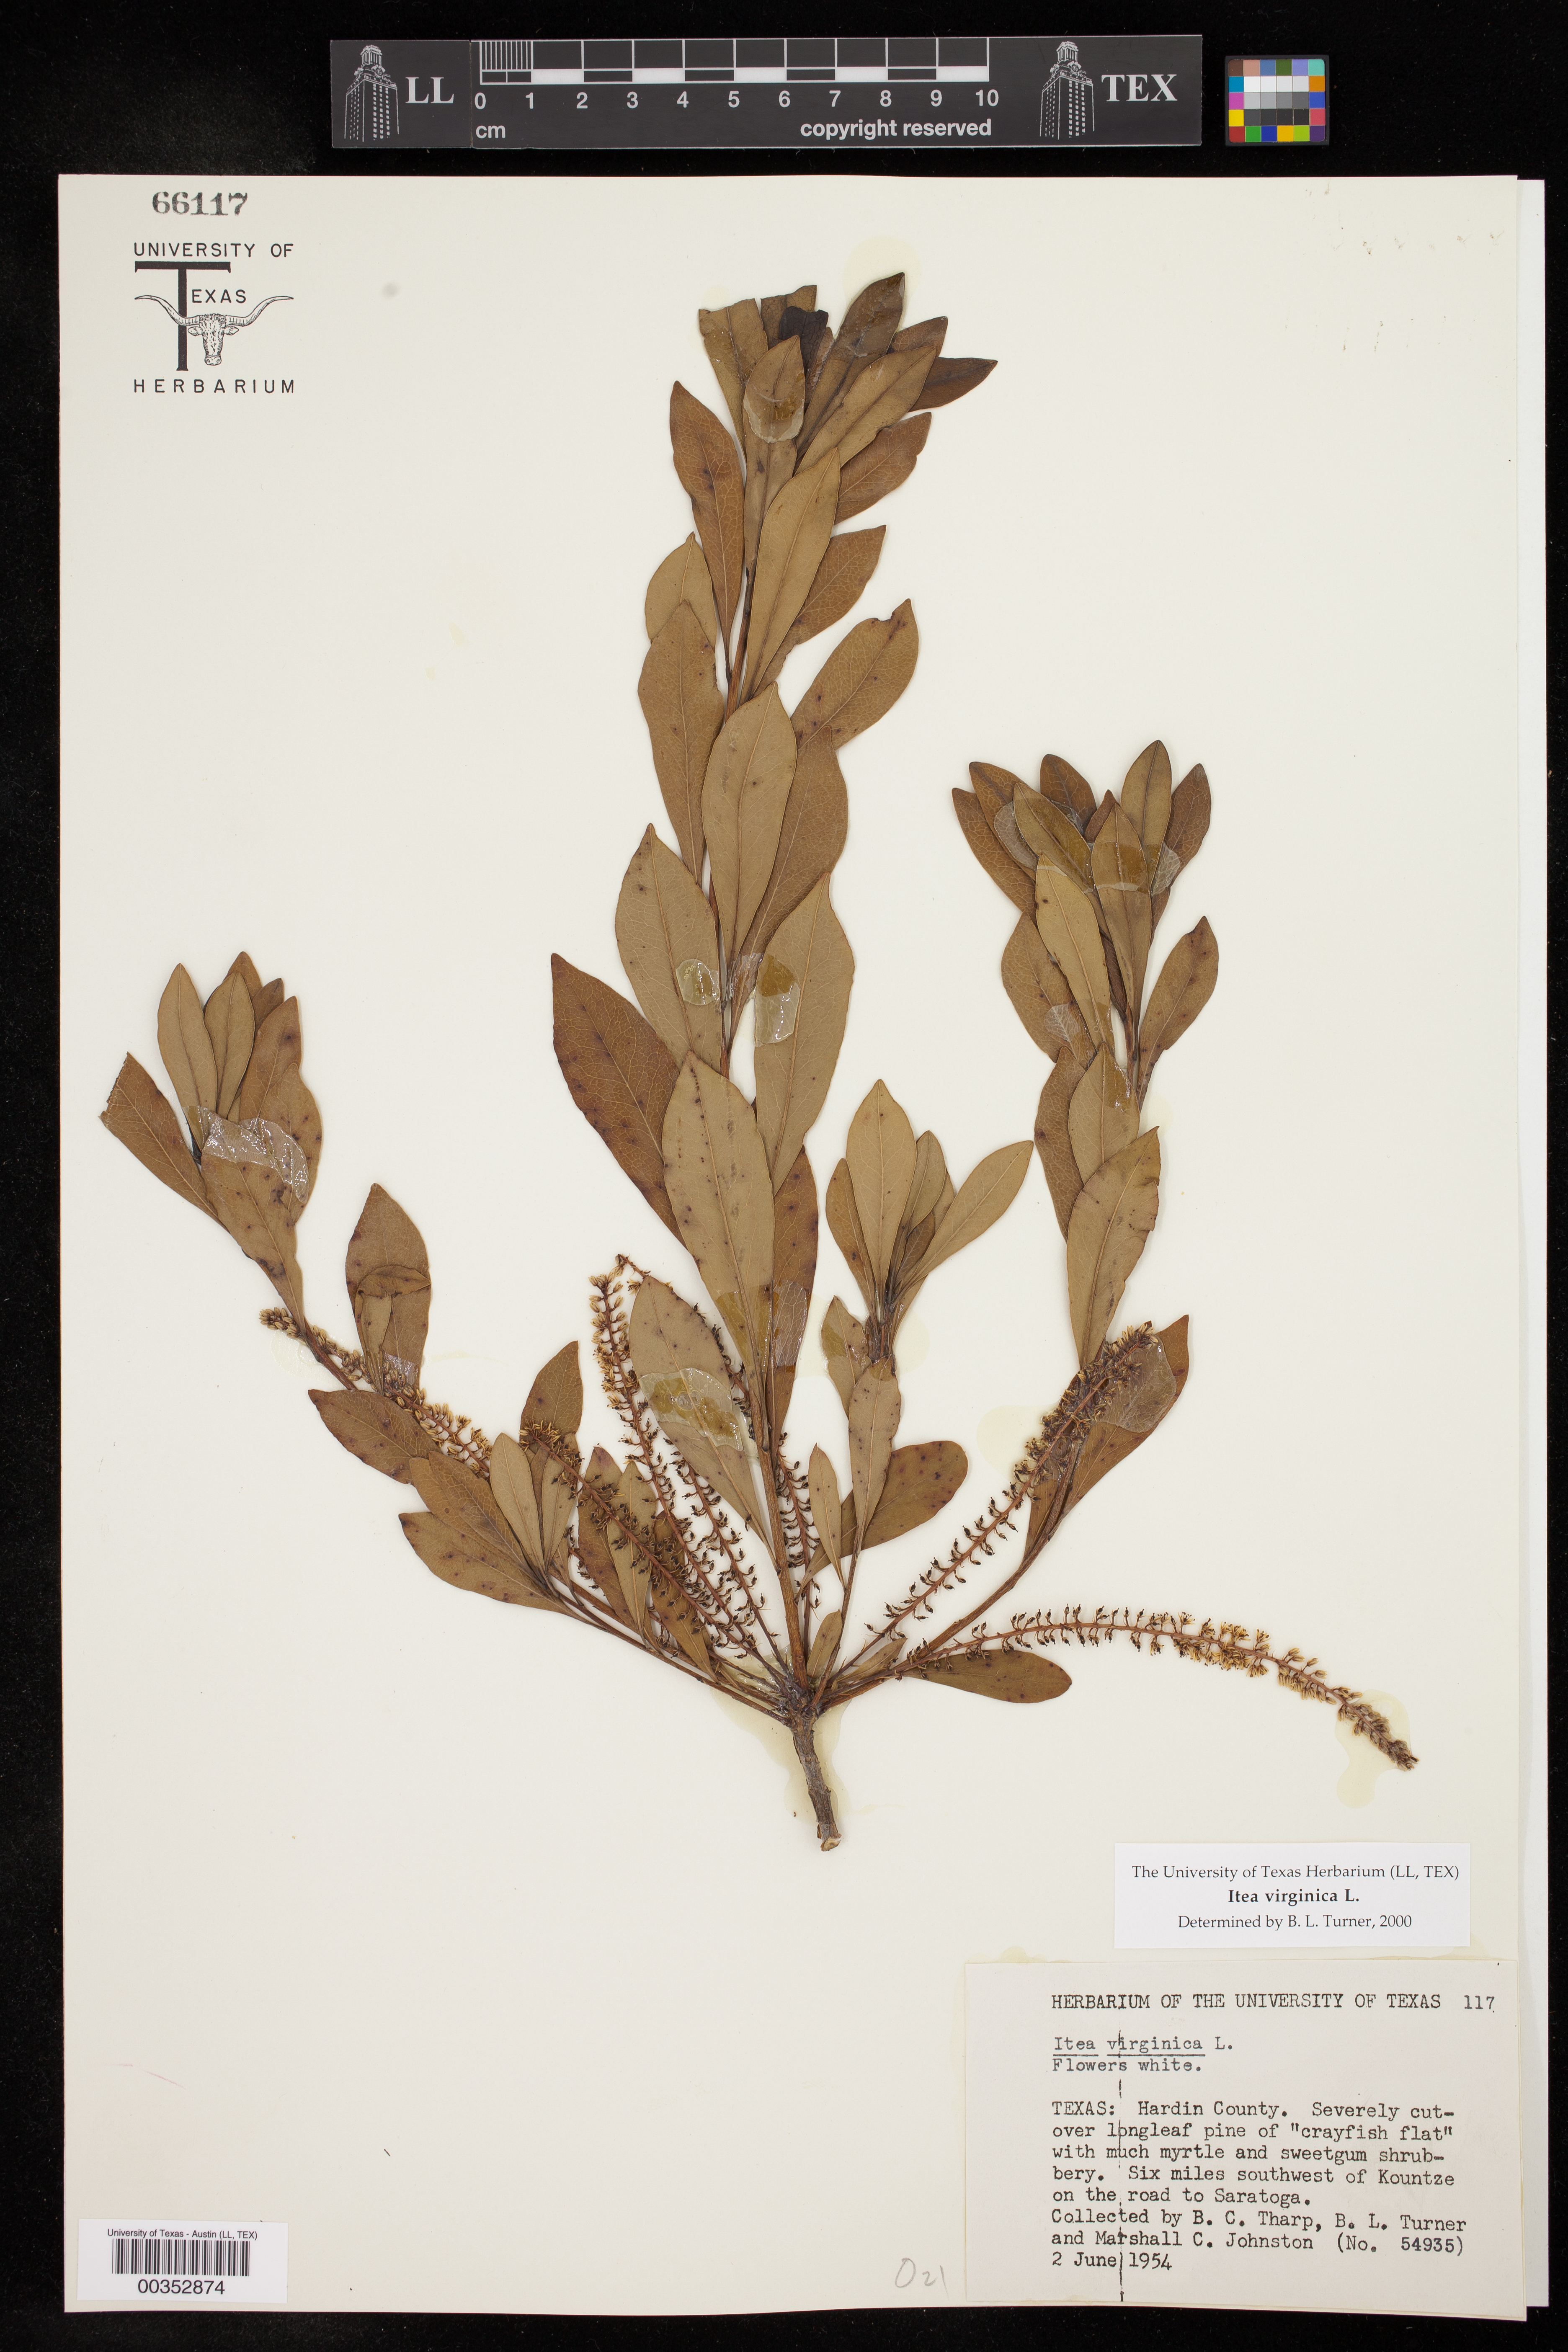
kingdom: Plantae
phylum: Tracheophyta
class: Magnoliopsida
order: Saxifragales
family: Iteaceae
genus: Itea
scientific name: Itea virginica
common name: Sweetspire
